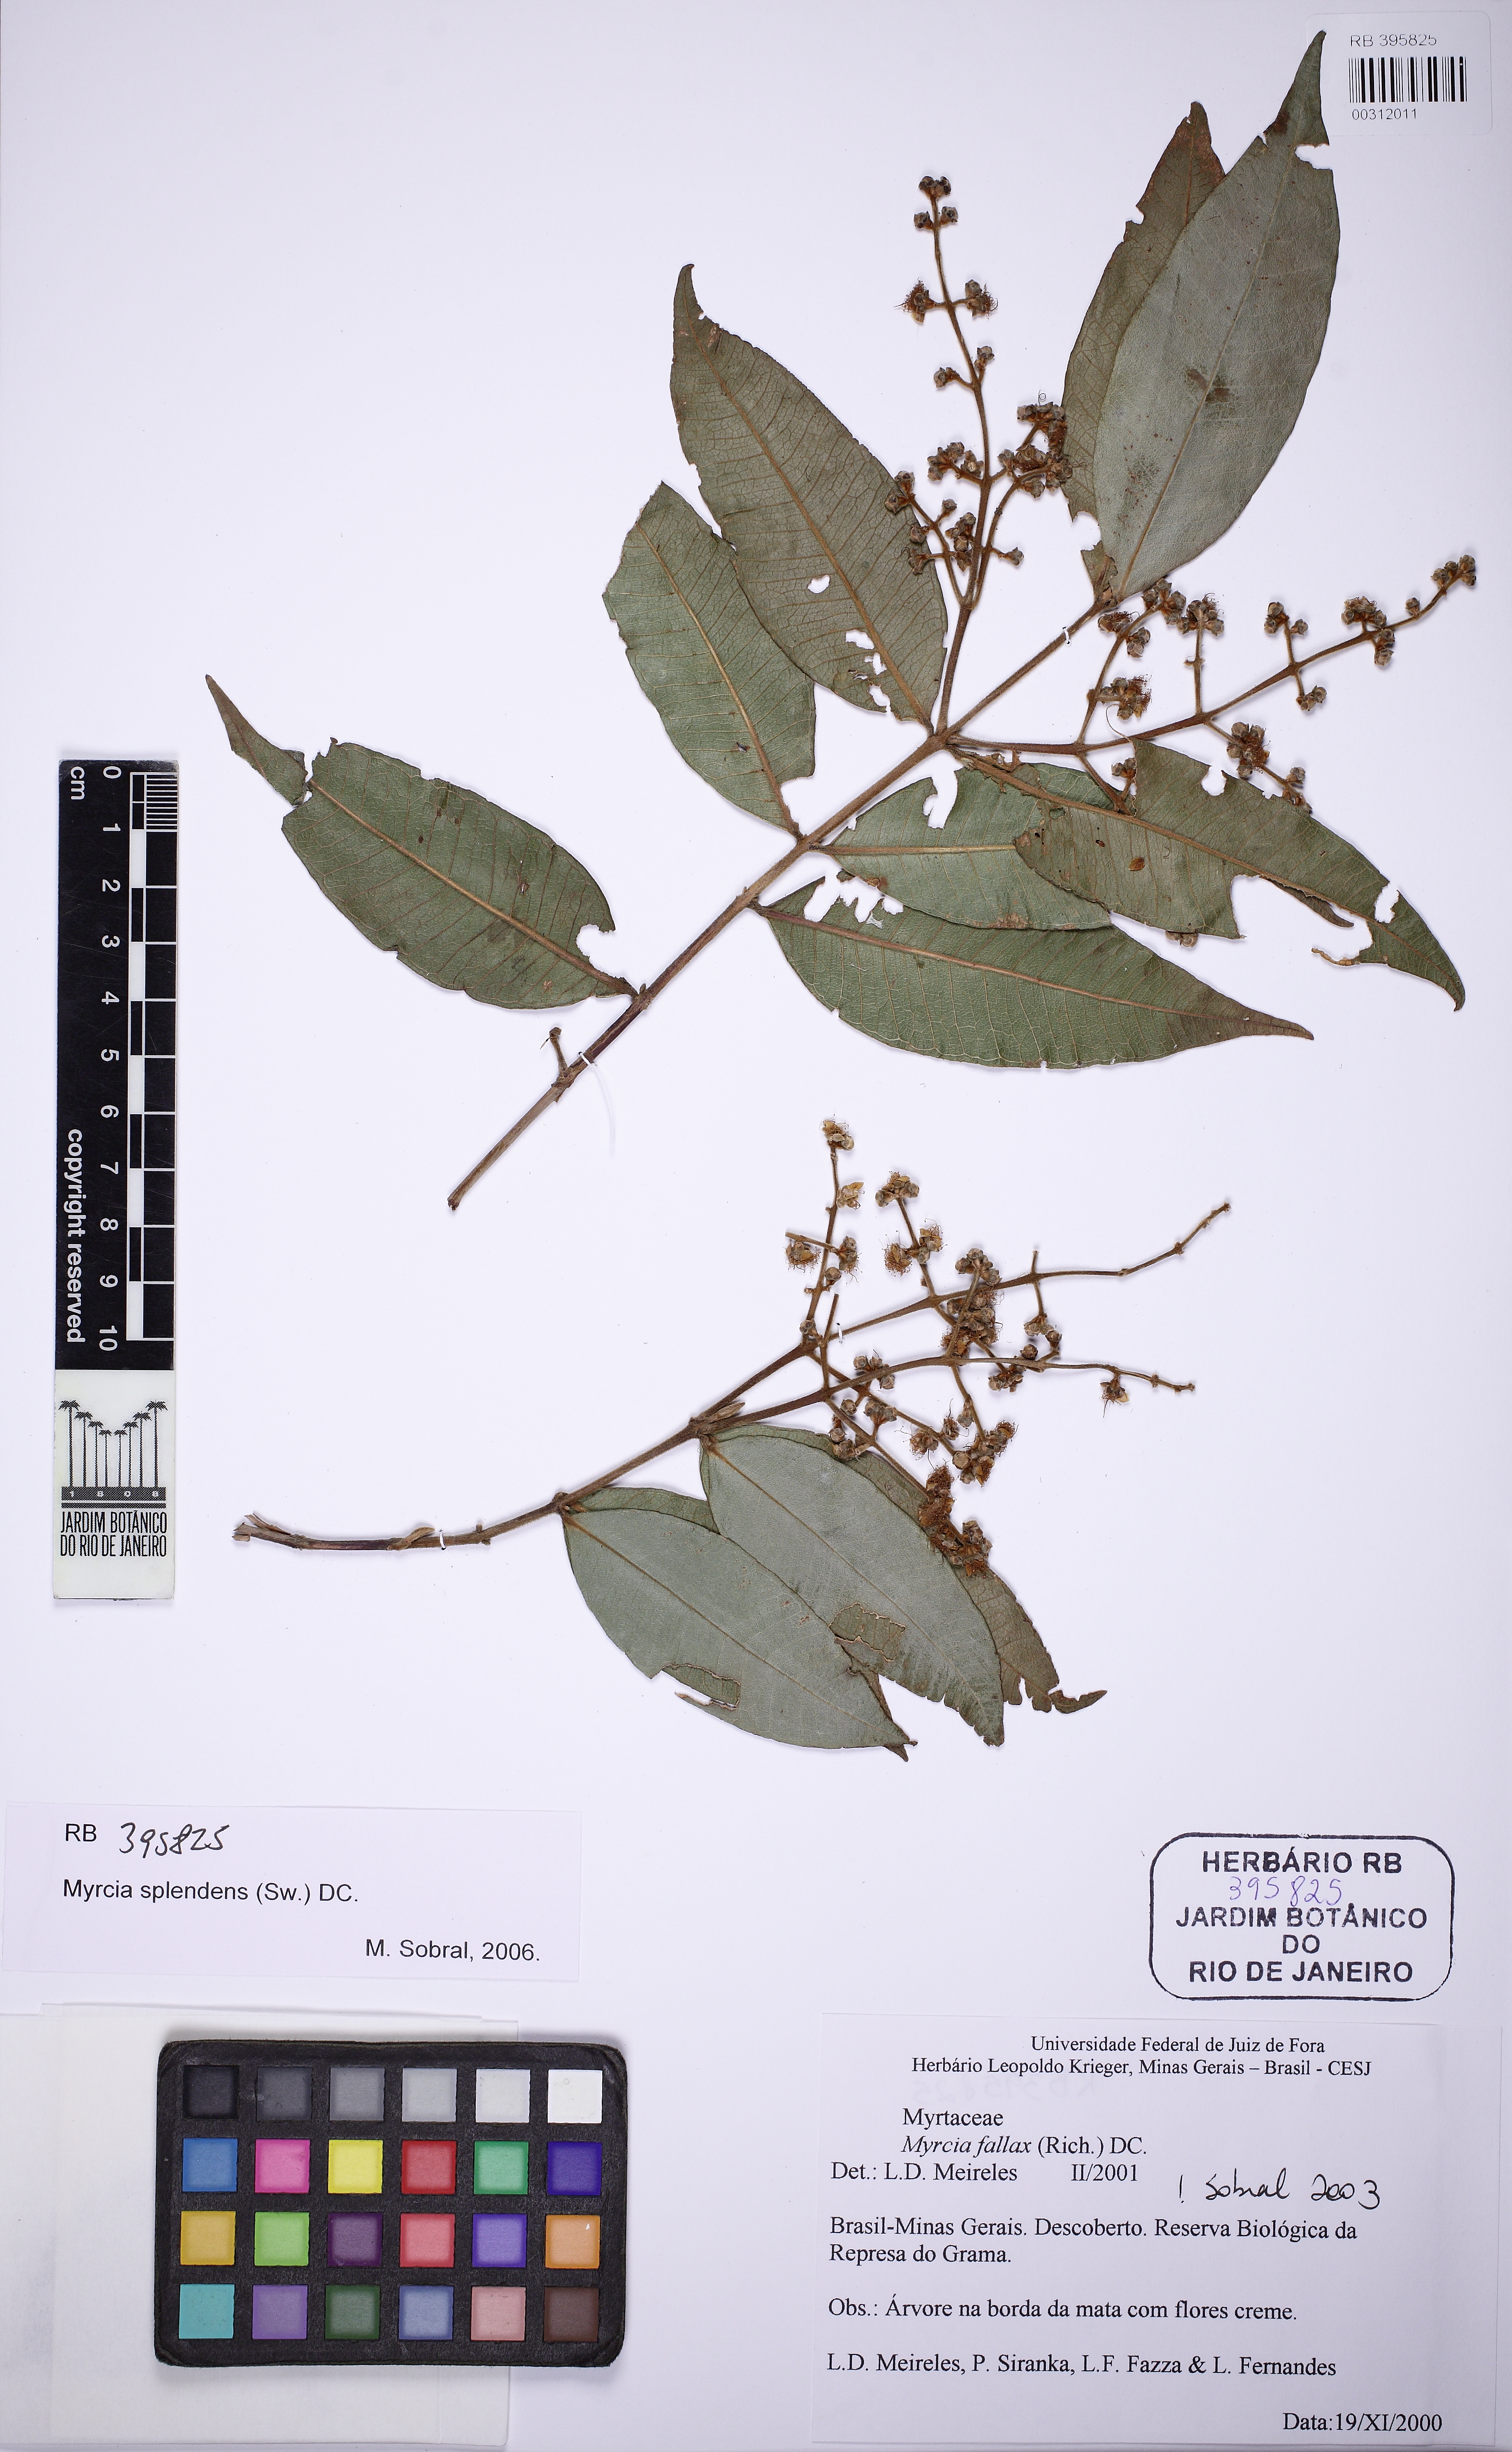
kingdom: Plantae
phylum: Tracheophyta
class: Magnoliopsida
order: Myrtales
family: Myrtaceae
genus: Myrcia
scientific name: Myrcia splendens
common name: Surinam cherry
